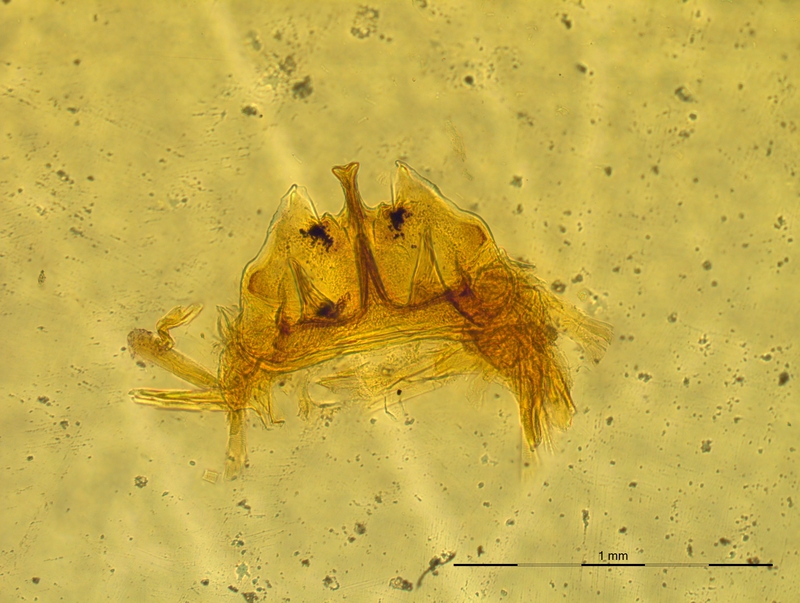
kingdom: Animalia
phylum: Arthropoda
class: Diplopoda
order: Chordeumatida
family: Craspedosomatidae
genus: Craspedosoma
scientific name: Craspedosoma rawlinsii
